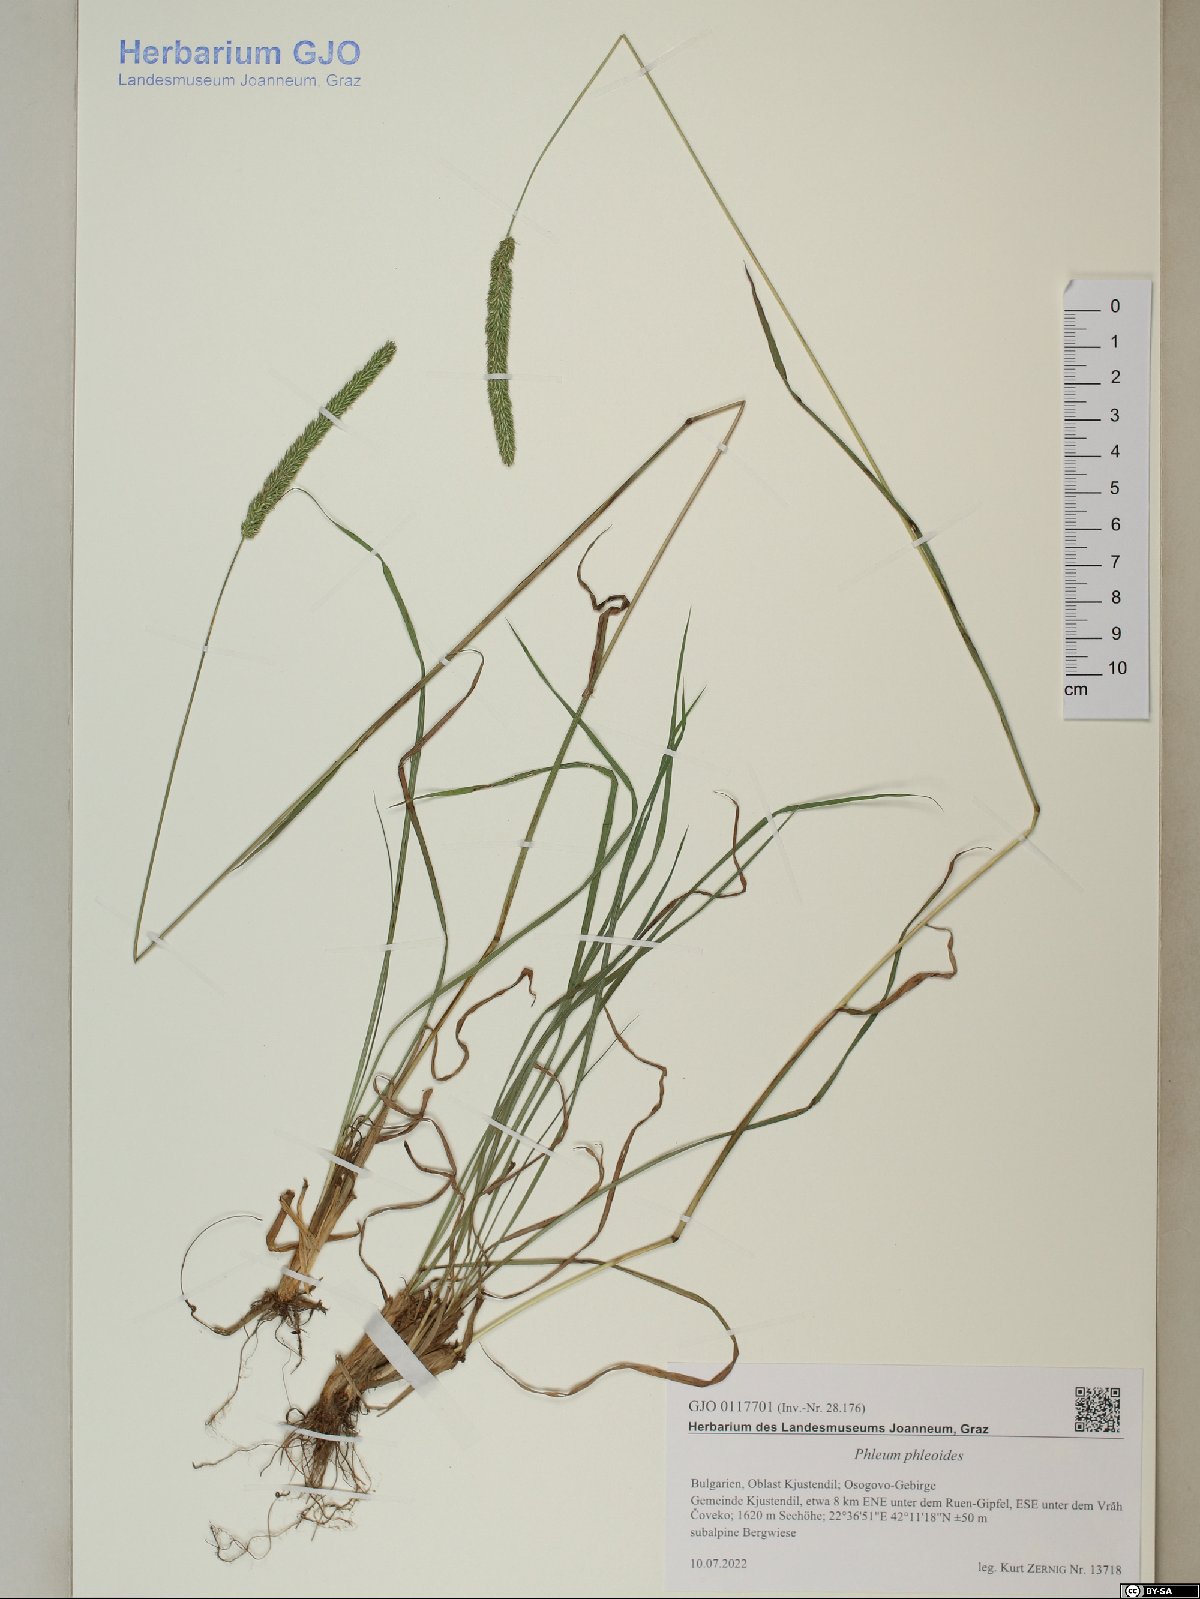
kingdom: Plantae
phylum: Tracheophyta
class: Liliopsida
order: Poales
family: Poaceae
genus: Phleum
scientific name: Phleum phleoides
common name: Purple-stem cat's-tail
